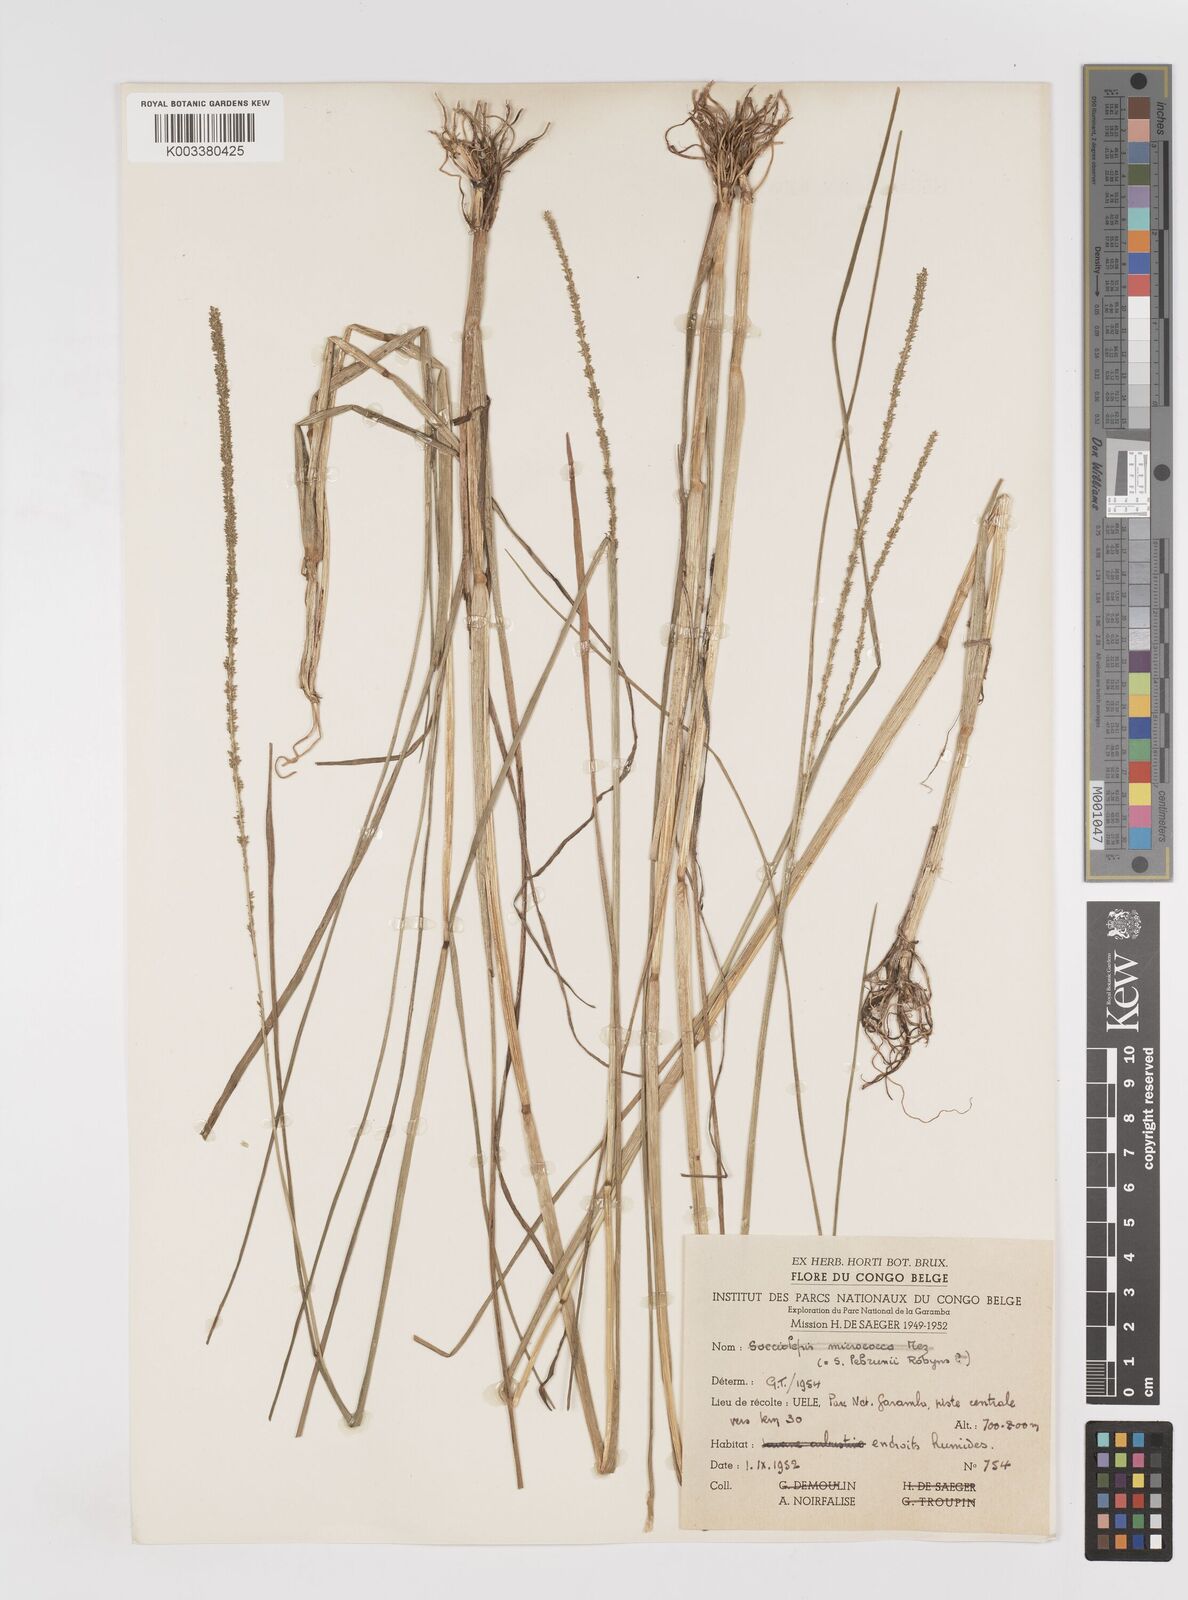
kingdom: Plantae
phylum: Tracheophyta
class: Liliopsida
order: Poales
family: Poaceae
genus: Sacciolepis
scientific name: Sacciolepis myosuroides
